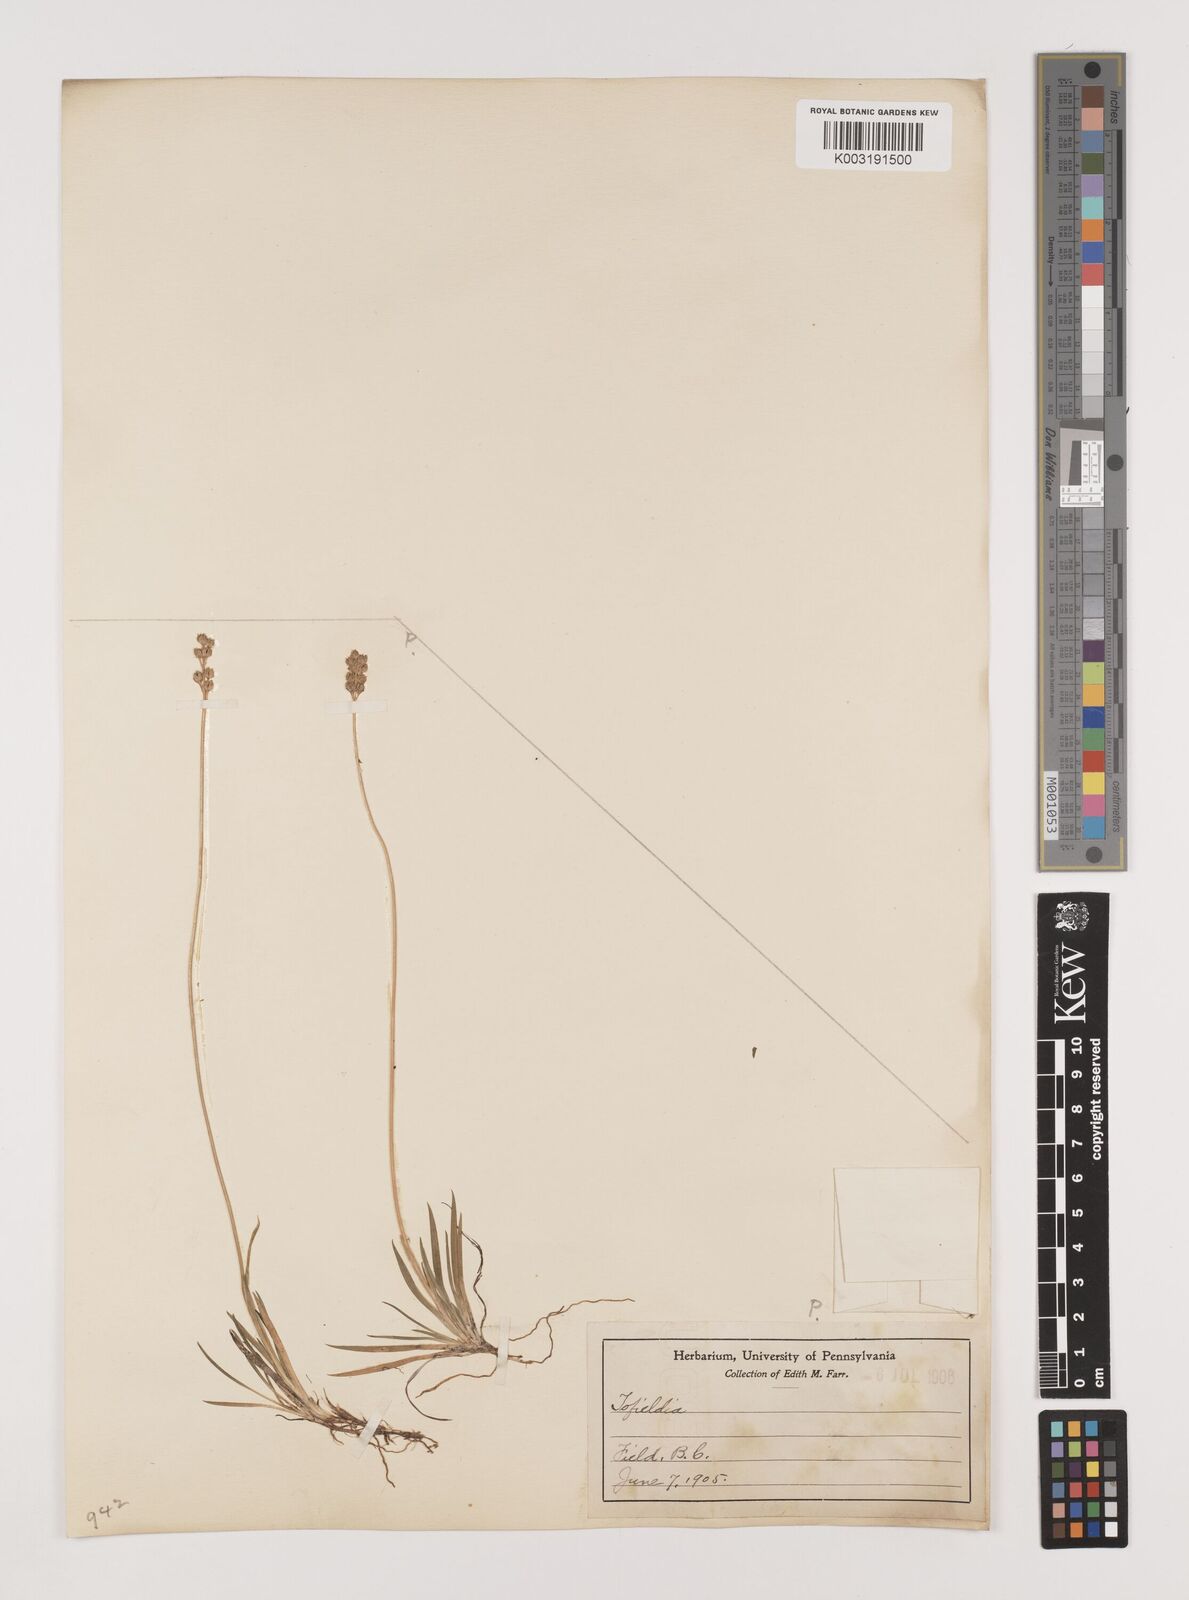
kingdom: Plantae
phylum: Tracheophyta
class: Liliopsida
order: Alismatales
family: Tofieldiaceae
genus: Tofieldia
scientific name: Tofieldia
